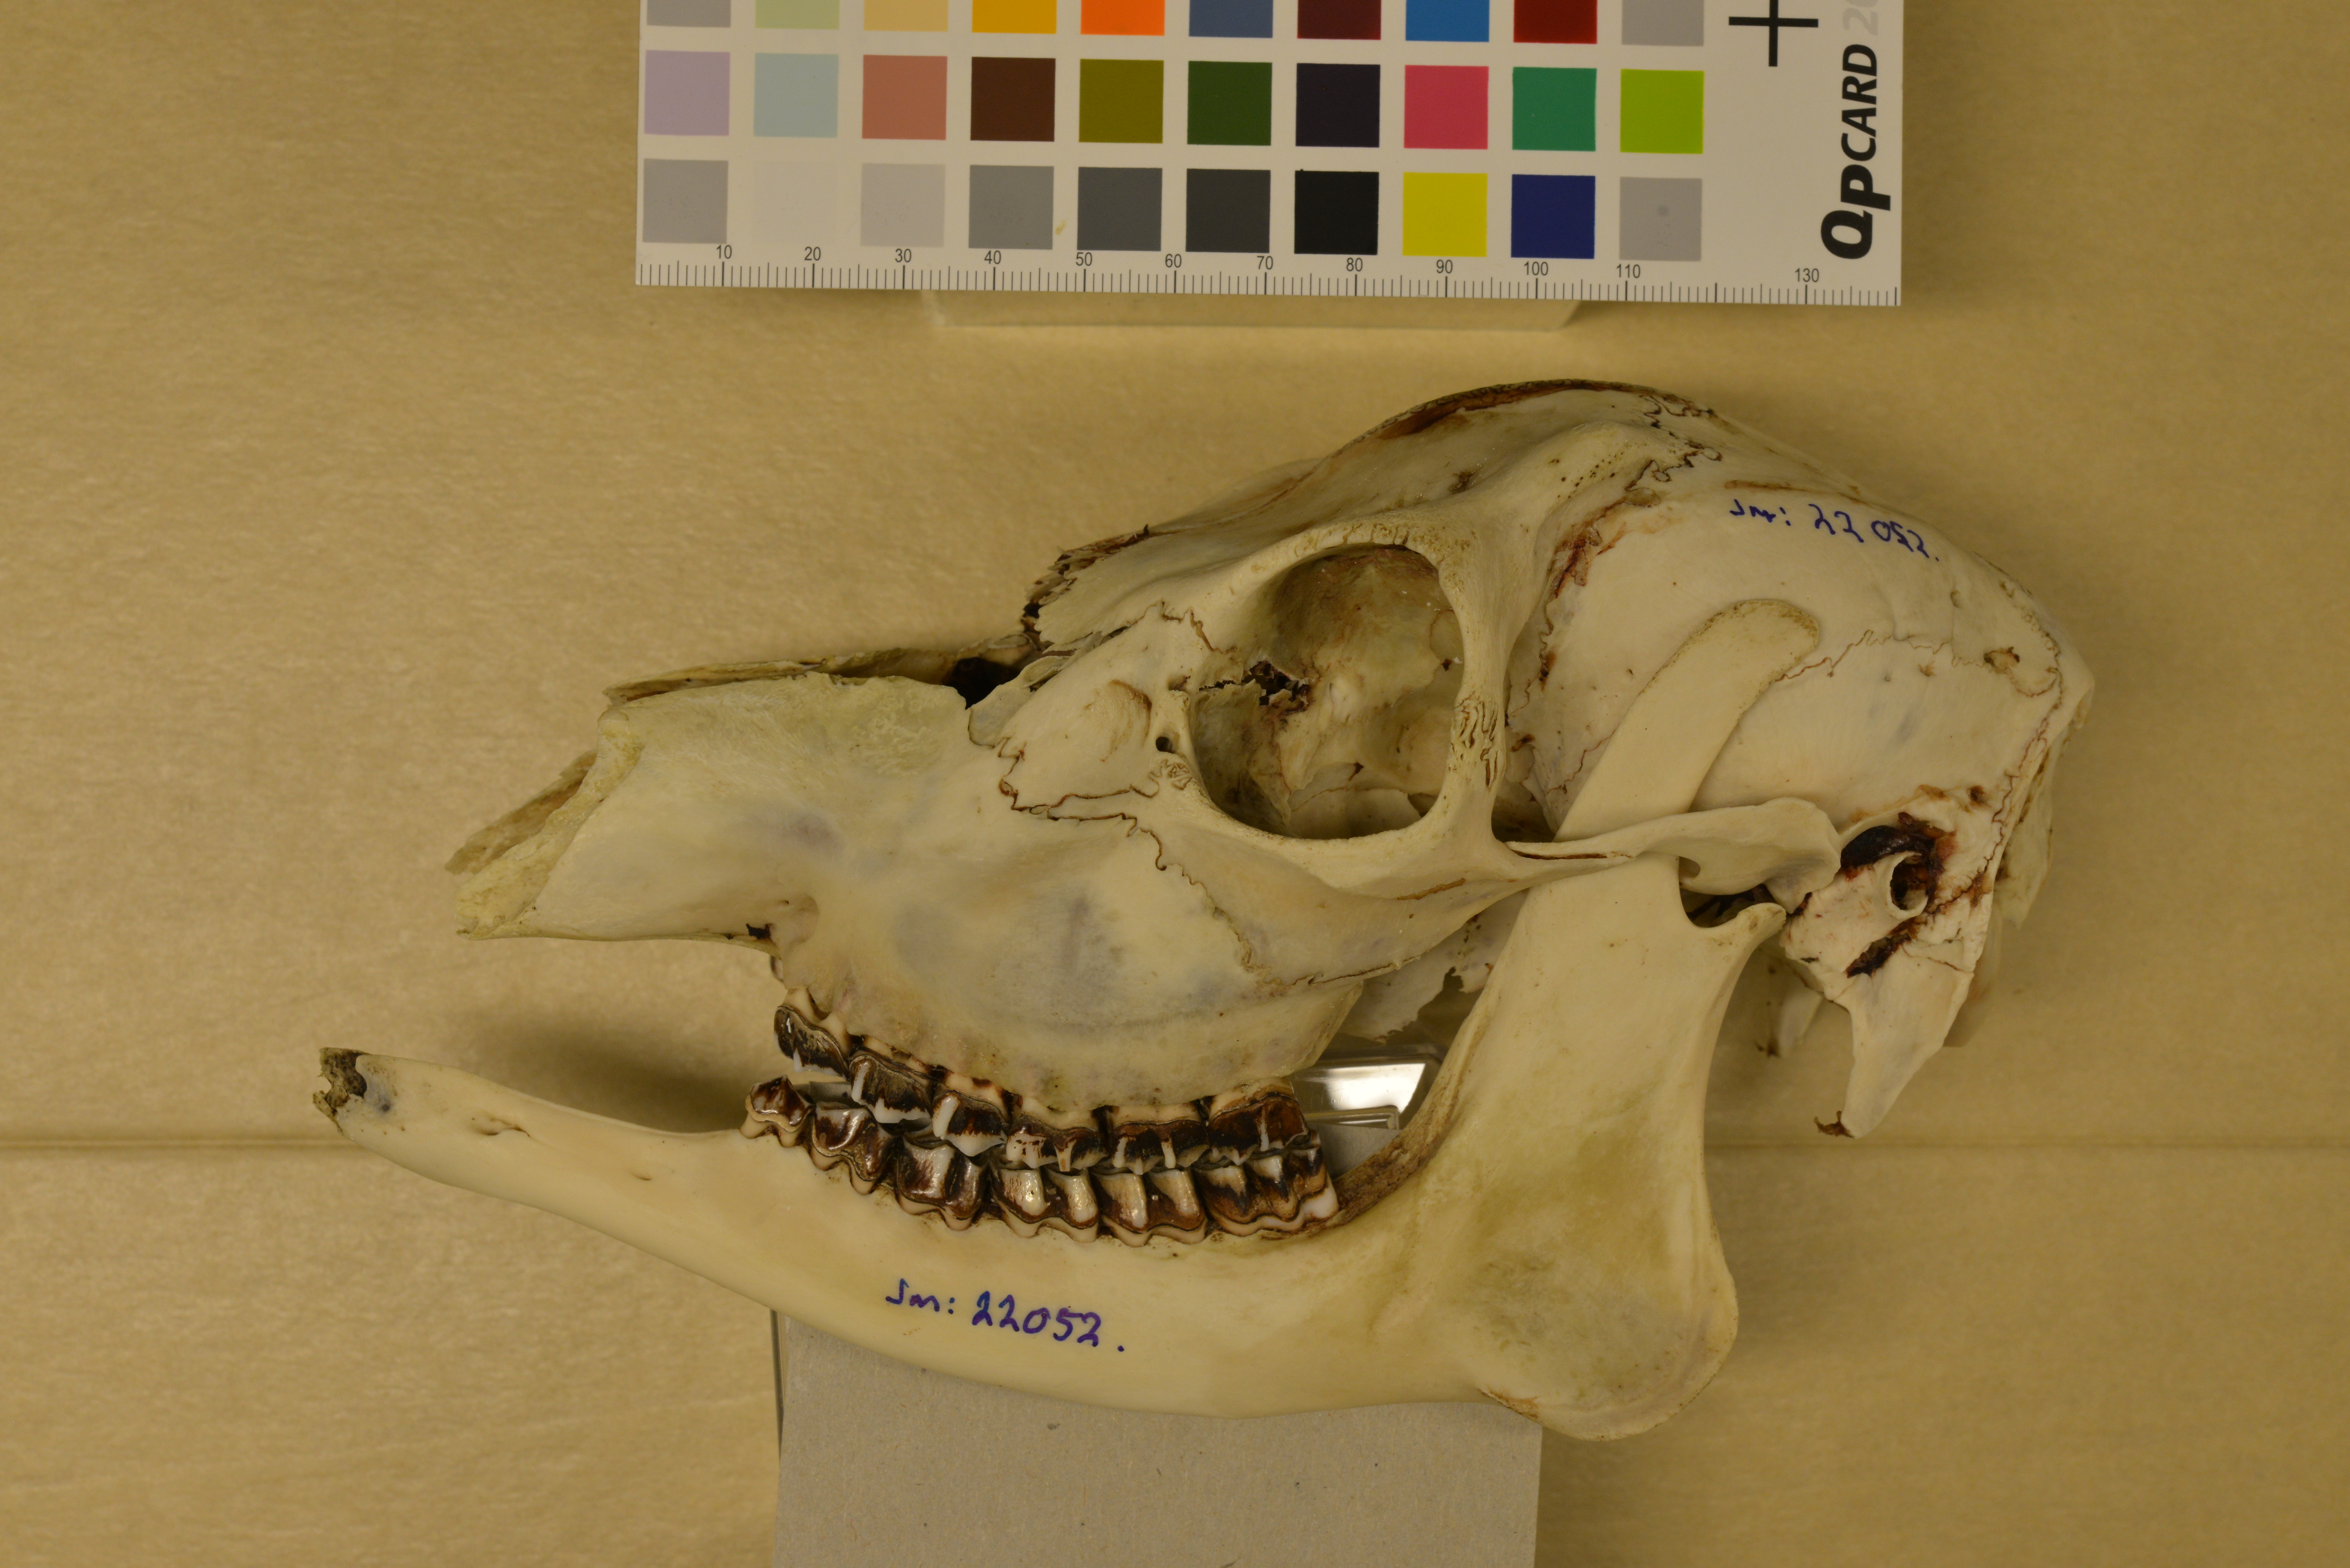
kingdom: Animalia
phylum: Chordata
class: Mammalia
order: Artiodactyla
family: Cervidae
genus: Capreolus
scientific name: Capreolus capreolus
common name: Western roe deer
